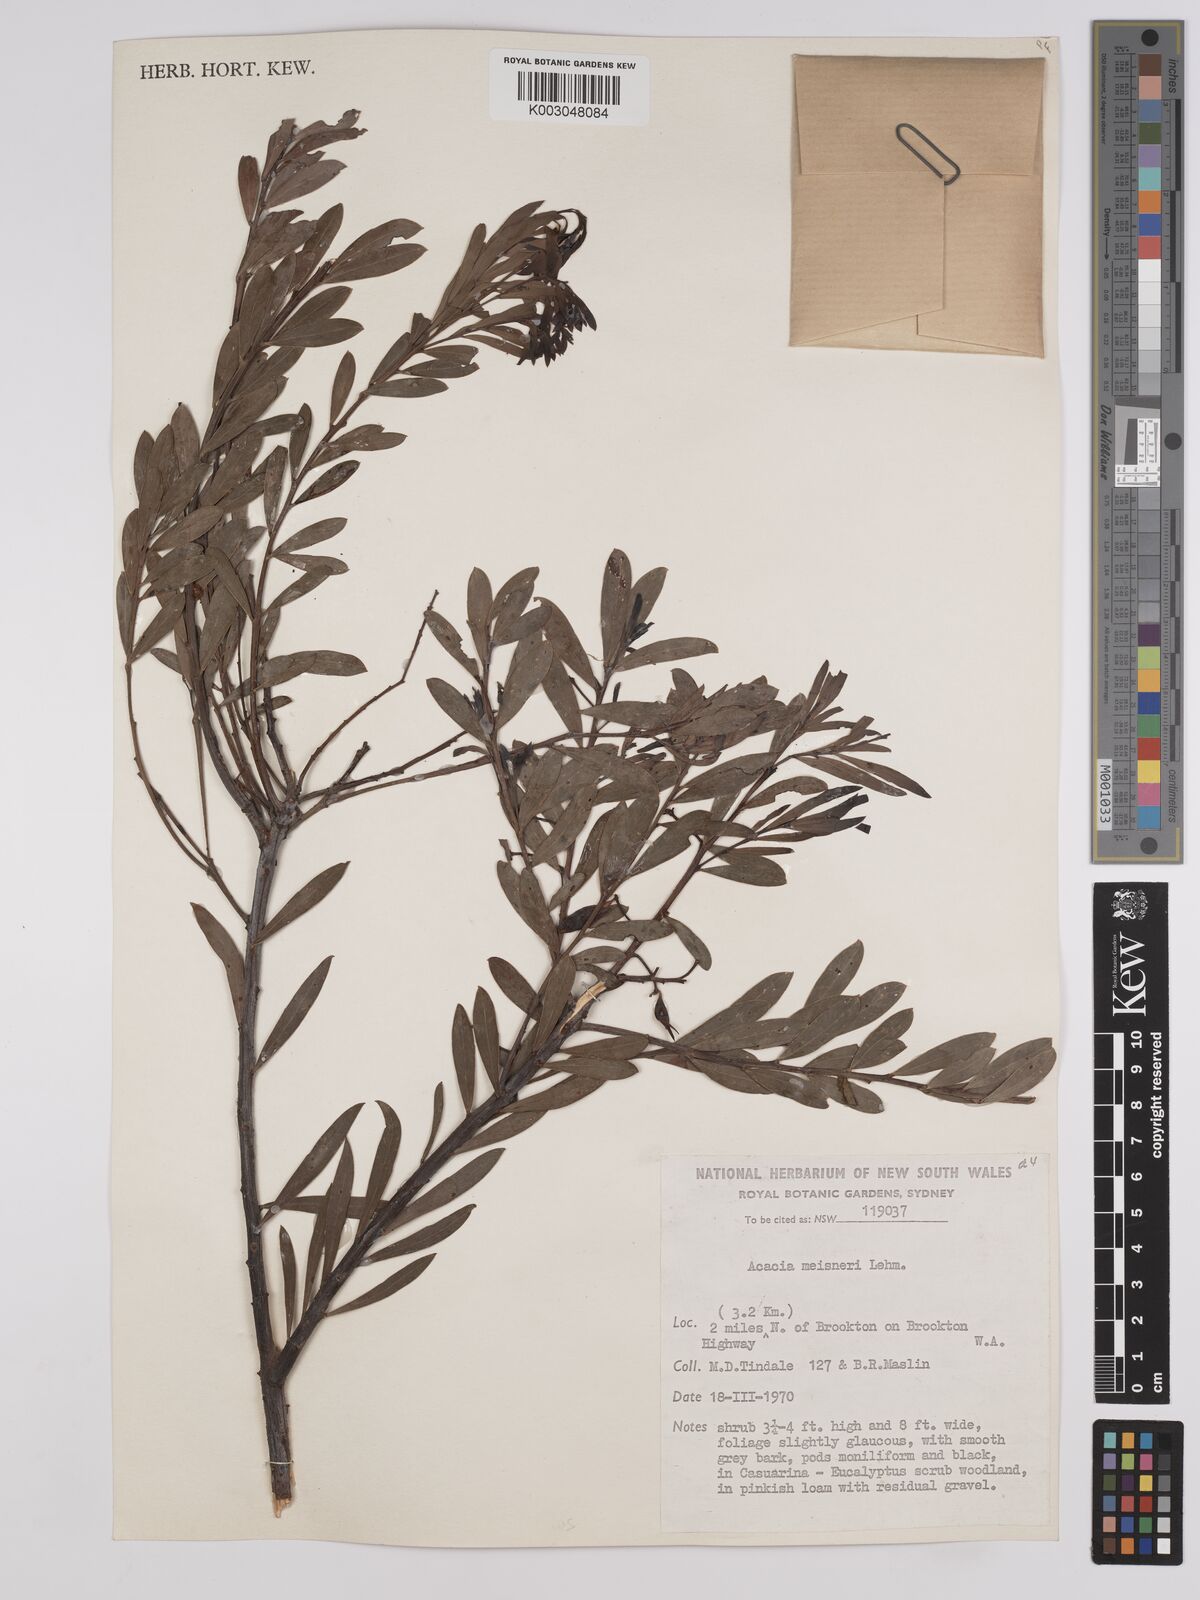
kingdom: Plantae
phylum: Tracheophyta
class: Magnoliopsida
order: Fabales
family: Fabaceae
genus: Acacia
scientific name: Acacia meisneri
